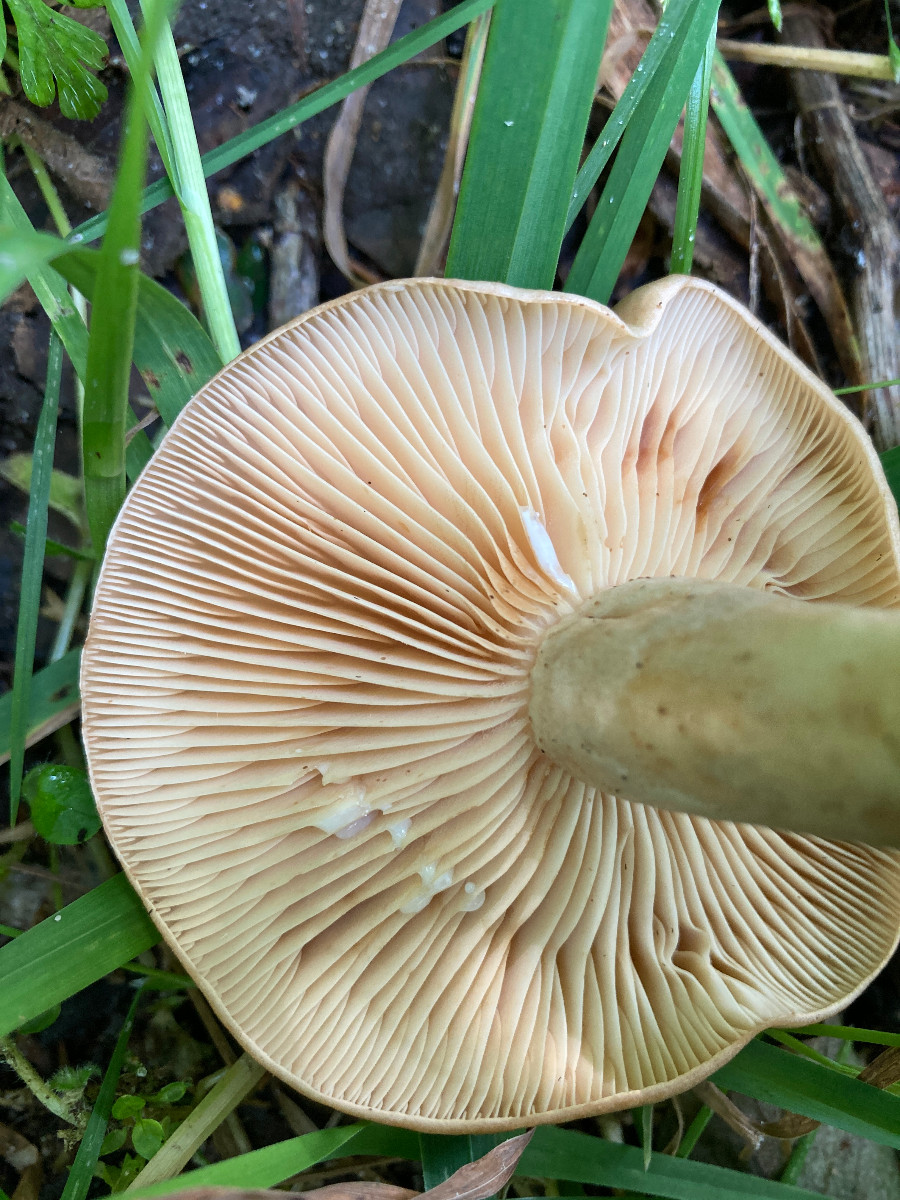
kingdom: Fungi
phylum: Basidiomycota
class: Agaricomycetes
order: Russulales
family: Russulaceae
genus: Lactarius
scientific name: Lactarius pyrogalus
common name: hassel-mælkehat
